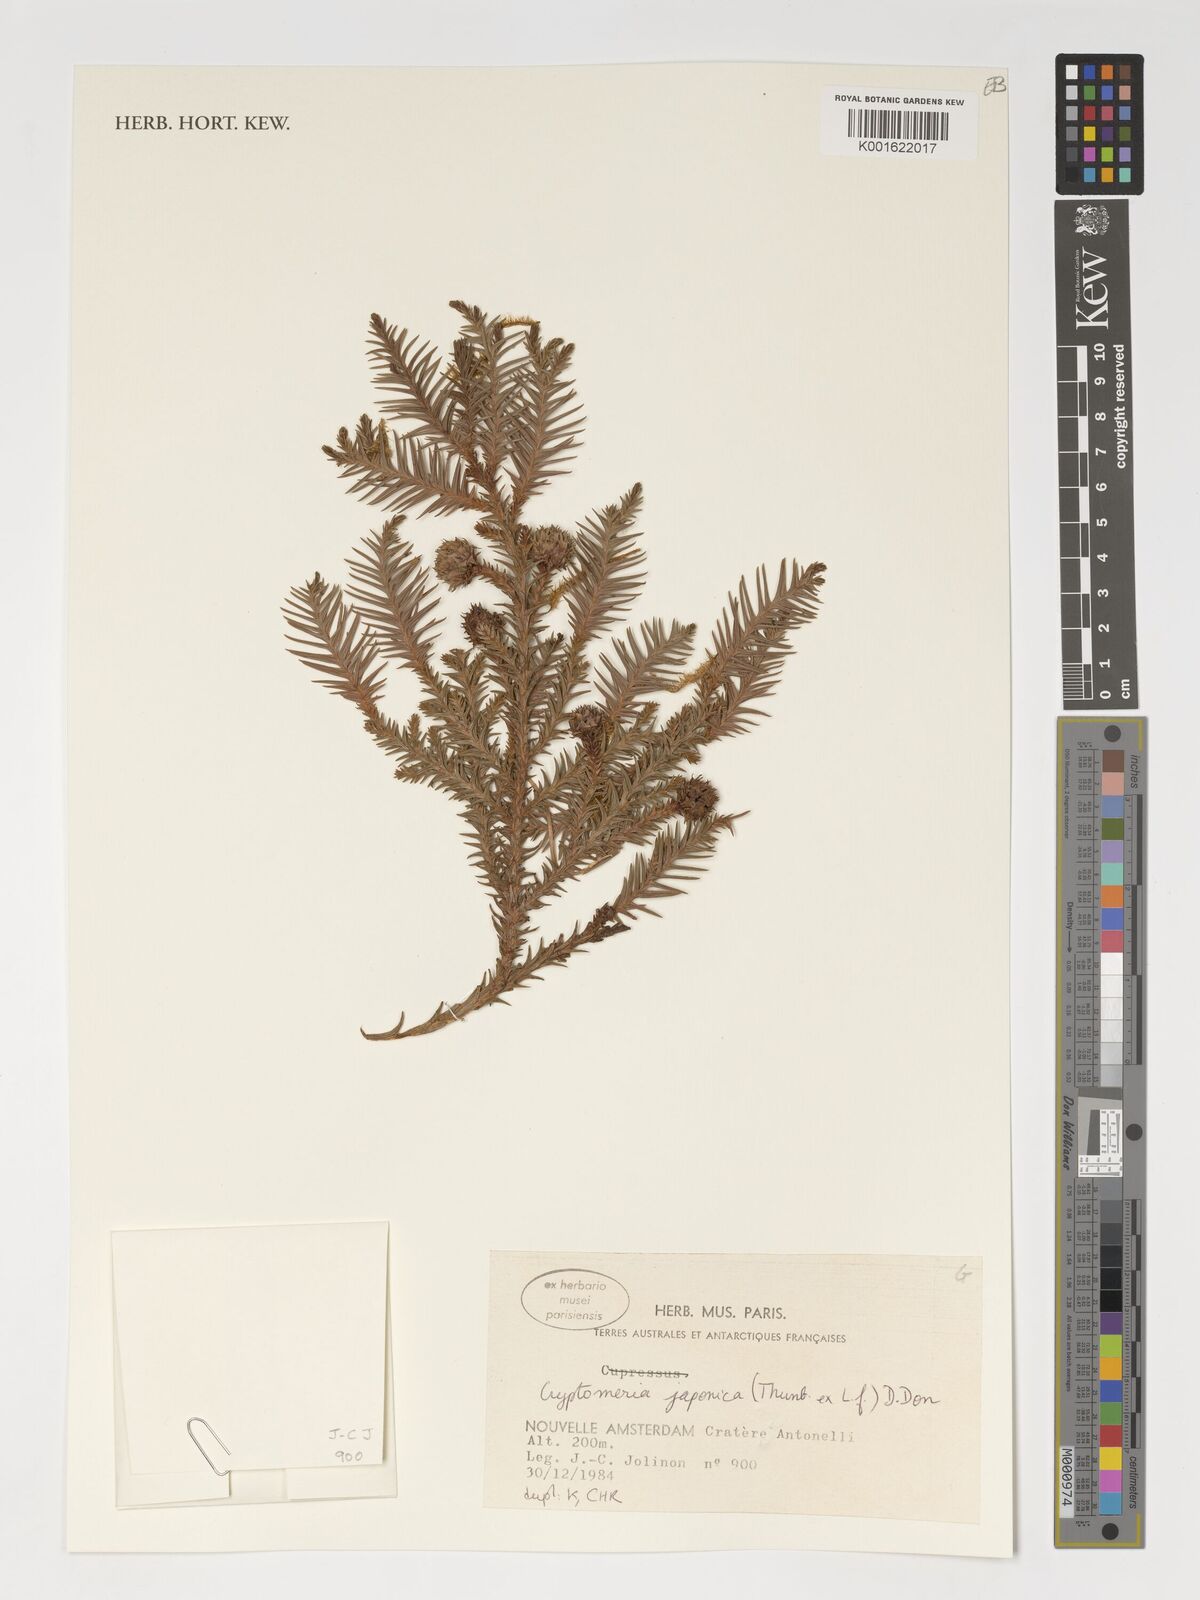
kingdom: Plantae
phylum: Tracheophyta
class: Pinopsida
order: Pinales
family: Cupressaceae
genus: Cryptomeria
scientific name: Cryptomeria japonica
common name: Japanese cedar
